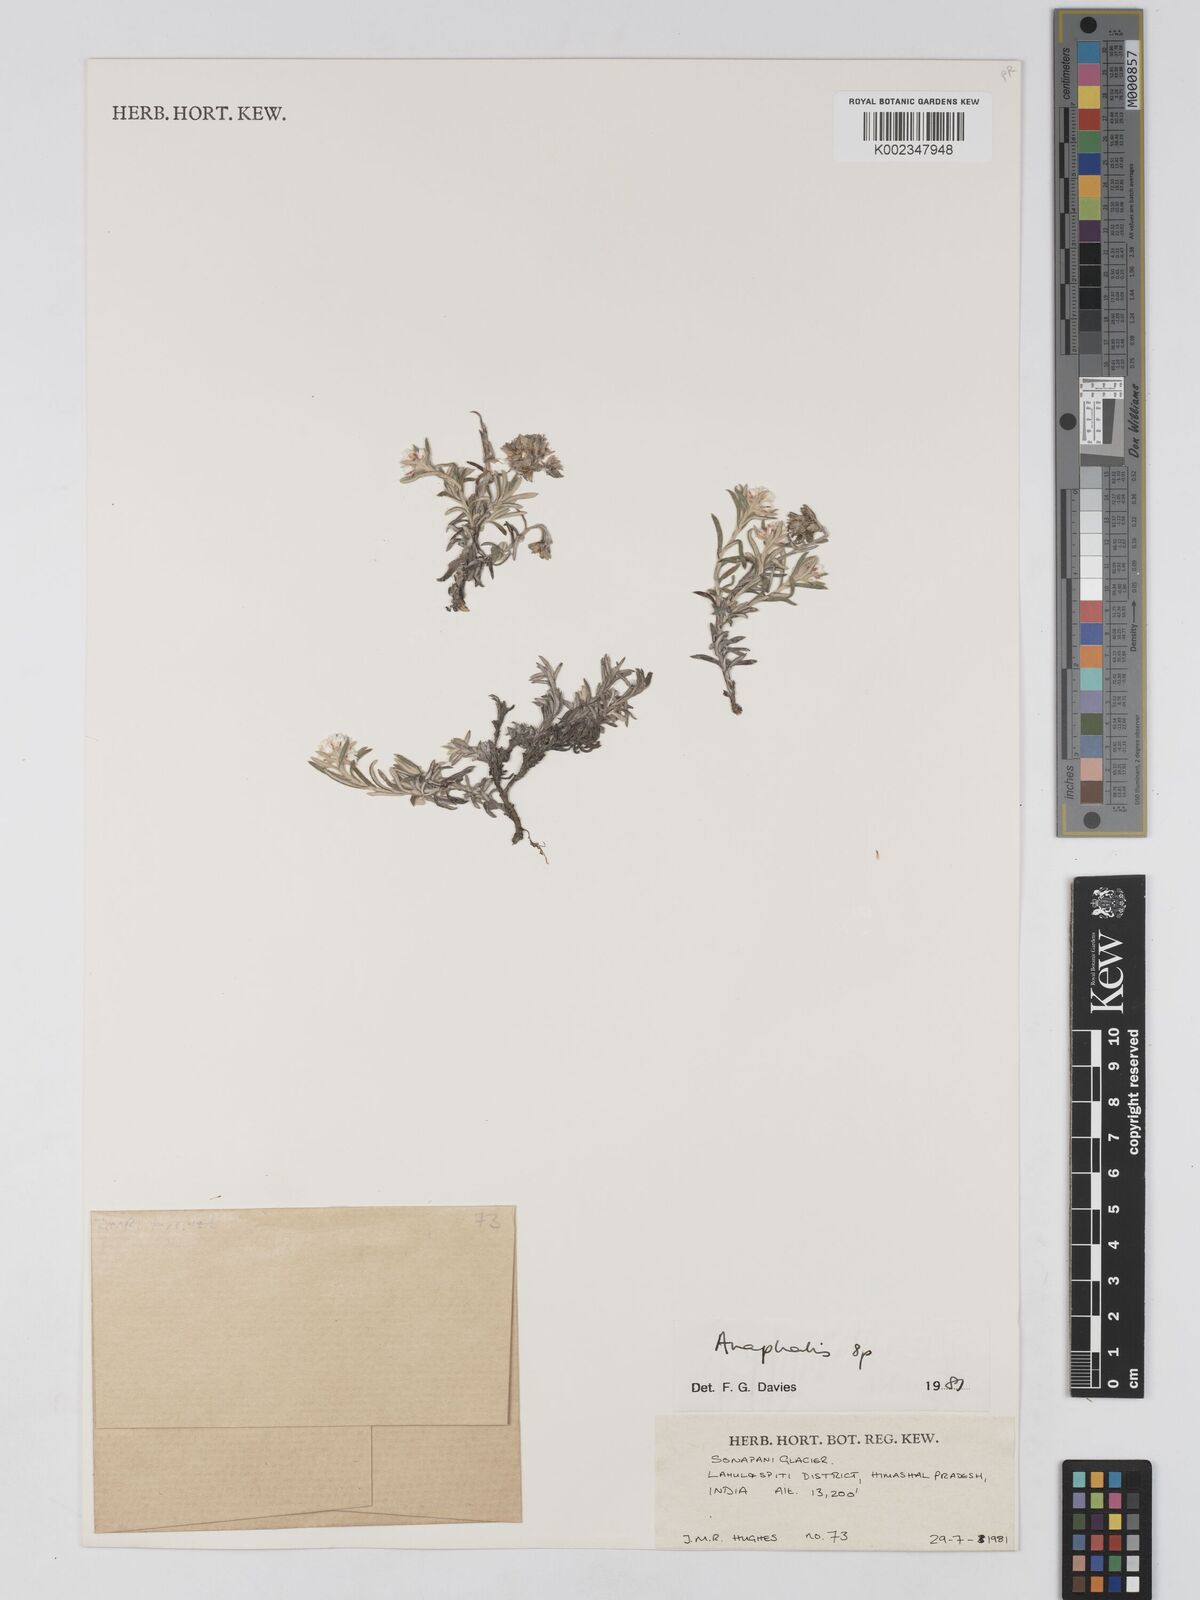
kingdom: Plantae
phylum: Tracheophyta
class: Magnoliopsida
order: Asterales
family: Asteraceae
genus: Anaphalis
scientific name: Anaphalis leptophylla
